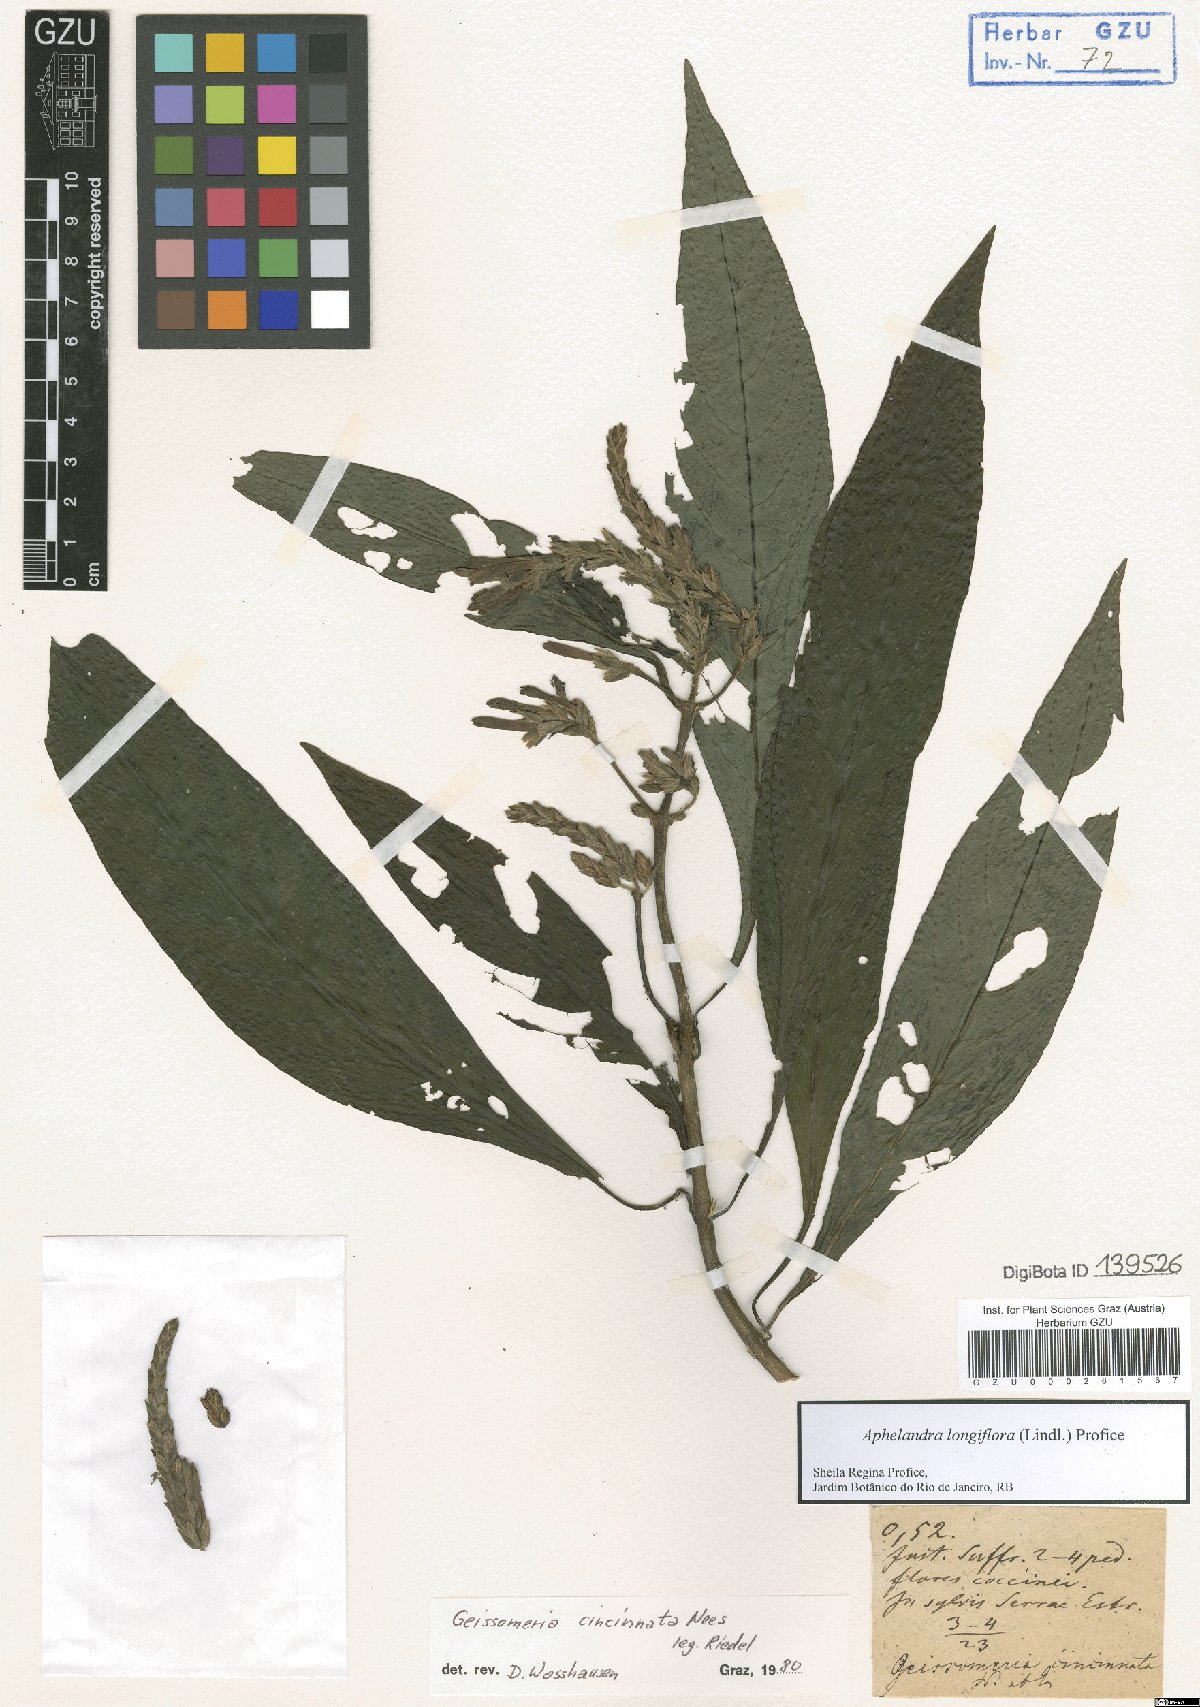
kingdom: Plantae
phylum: Tracheophyta
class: Magnoliopsida
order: Lamiales
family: Acanthaceae
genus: Aphelandra
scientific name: Aphelandra longiflora
